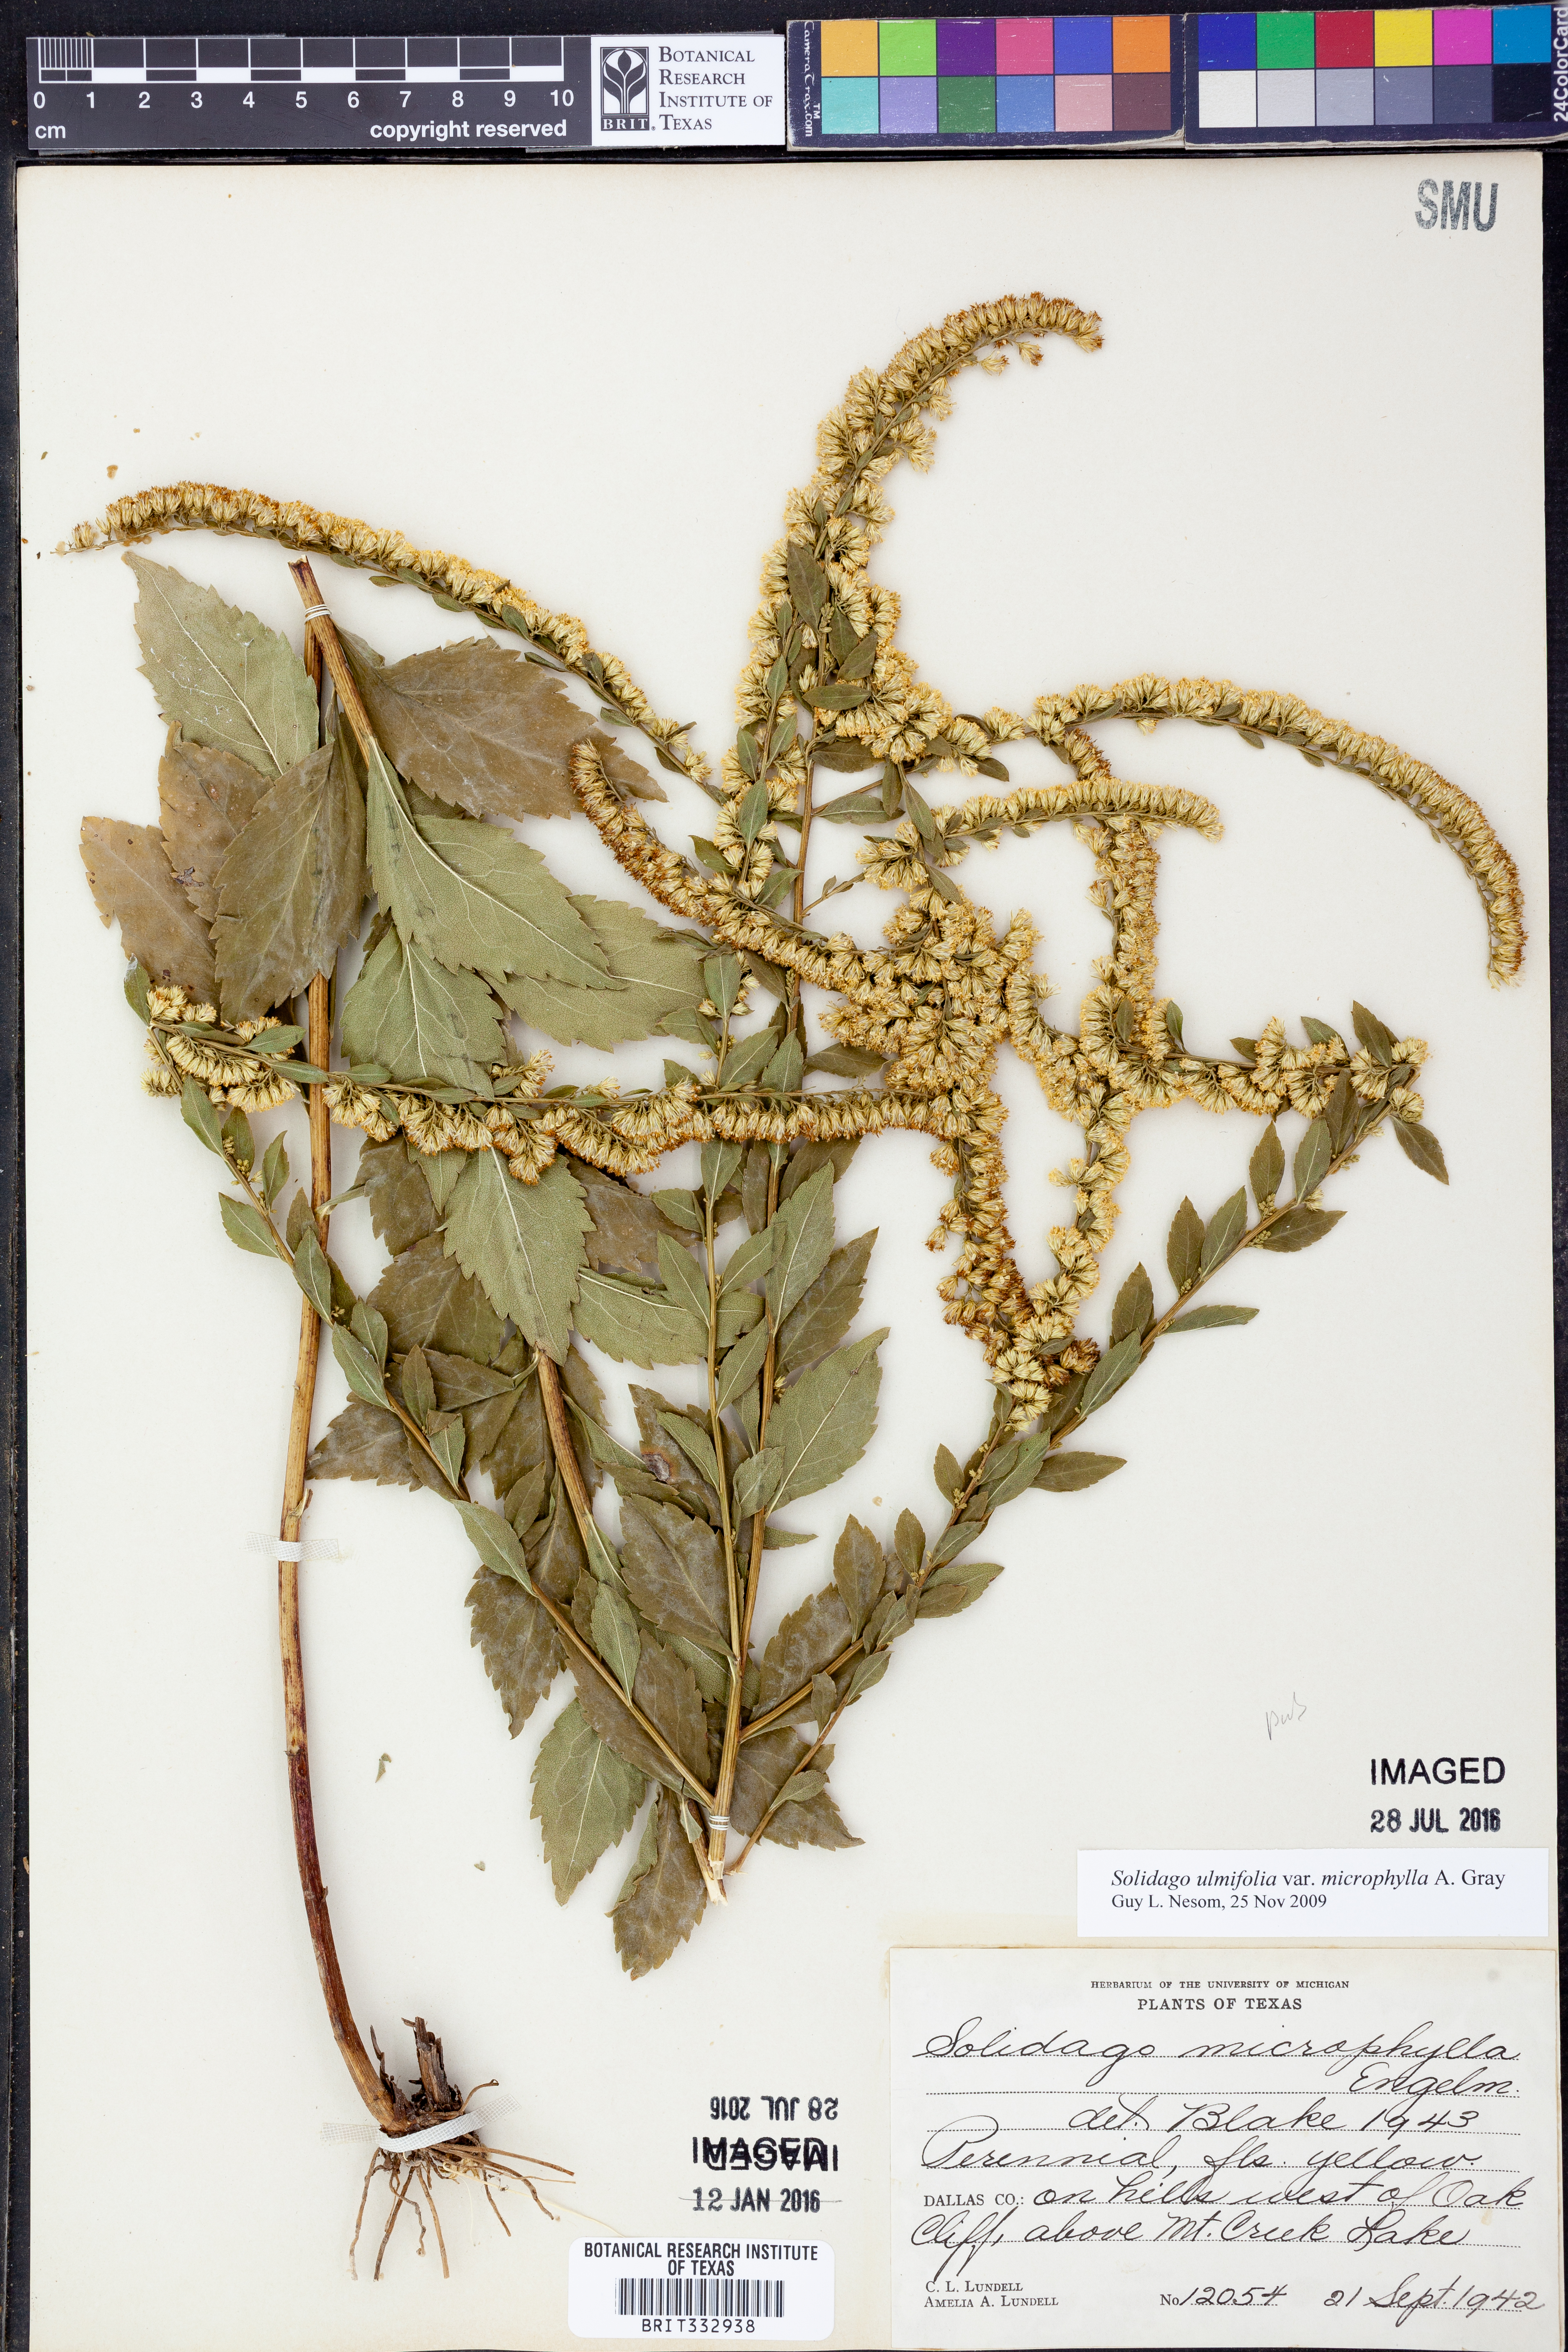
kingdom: Plantae
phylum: Tracheophyta
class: Magnoliopsida
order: Asterales
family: Asteraceae
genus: Solidago
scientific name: Solidago delicatula
